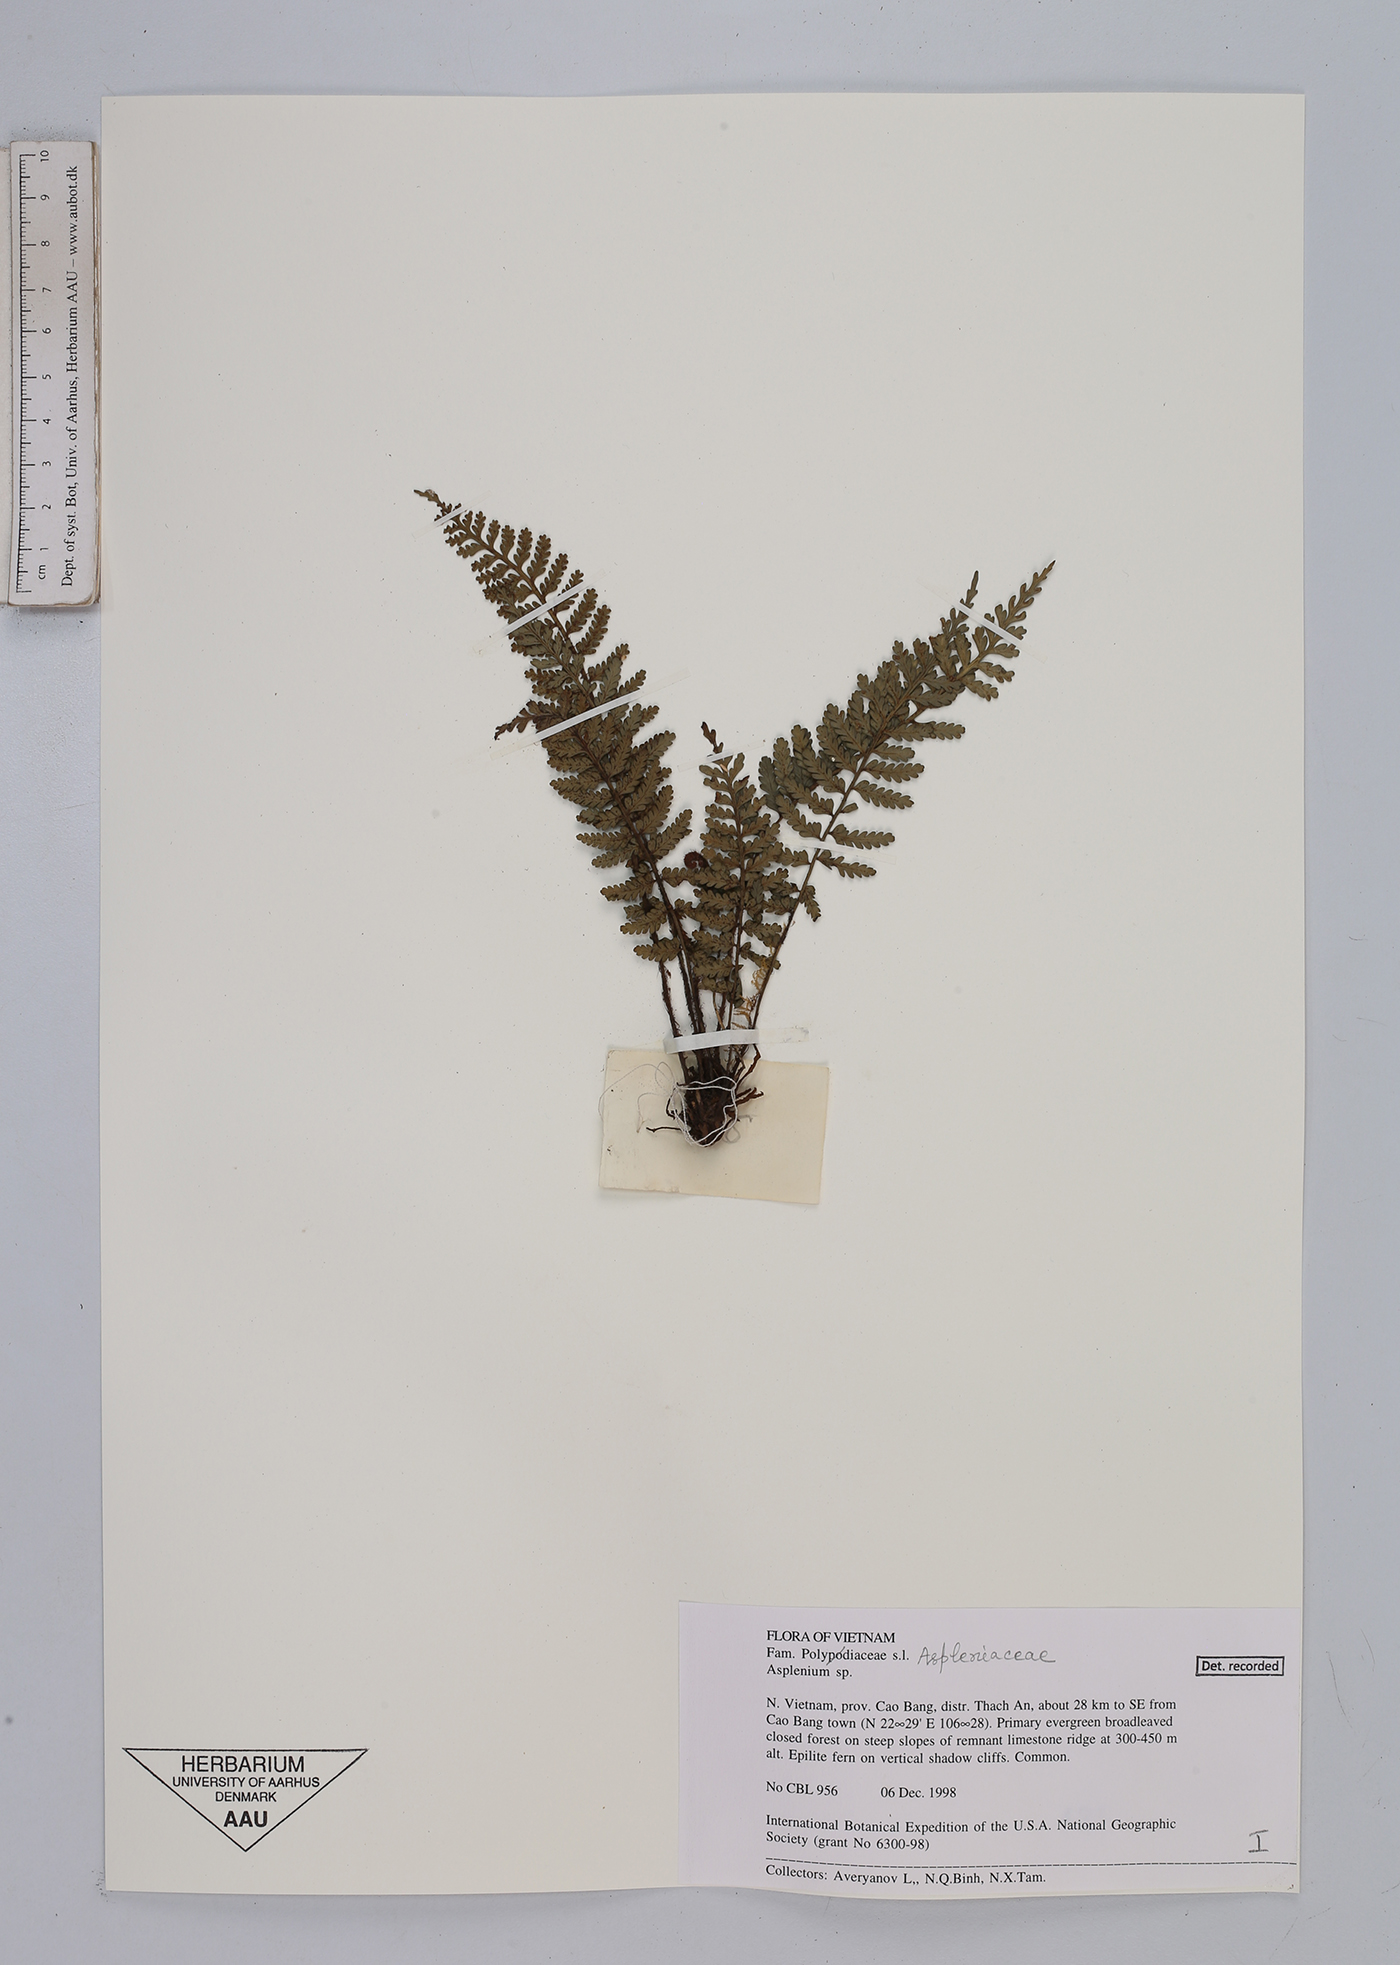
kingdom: Plantae
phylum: Tracheophyta
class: Polypodiopsida
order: Polypodiales
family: Aspleniaceae
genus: Asplenium
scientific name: Asplenium
